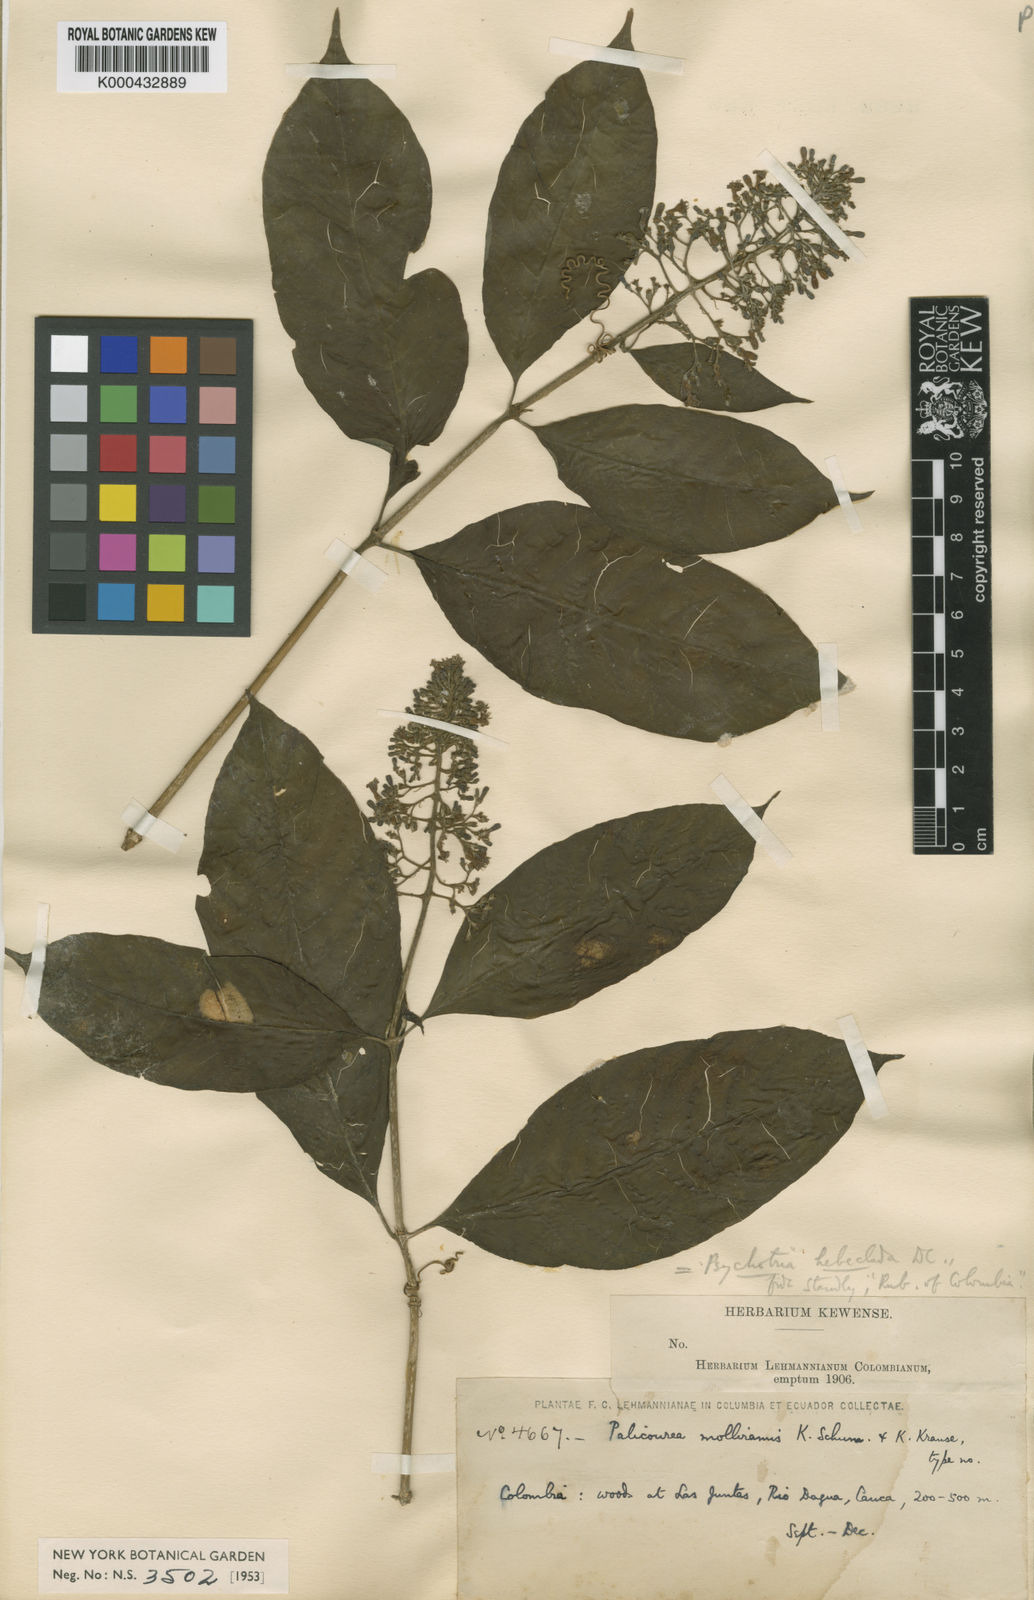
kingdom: Plantae
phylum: Tracheophyta
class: Magnoliopsida
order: Gentianales
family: Rubiaceae
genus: Palicourea
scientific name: Palicourea hebeclada
